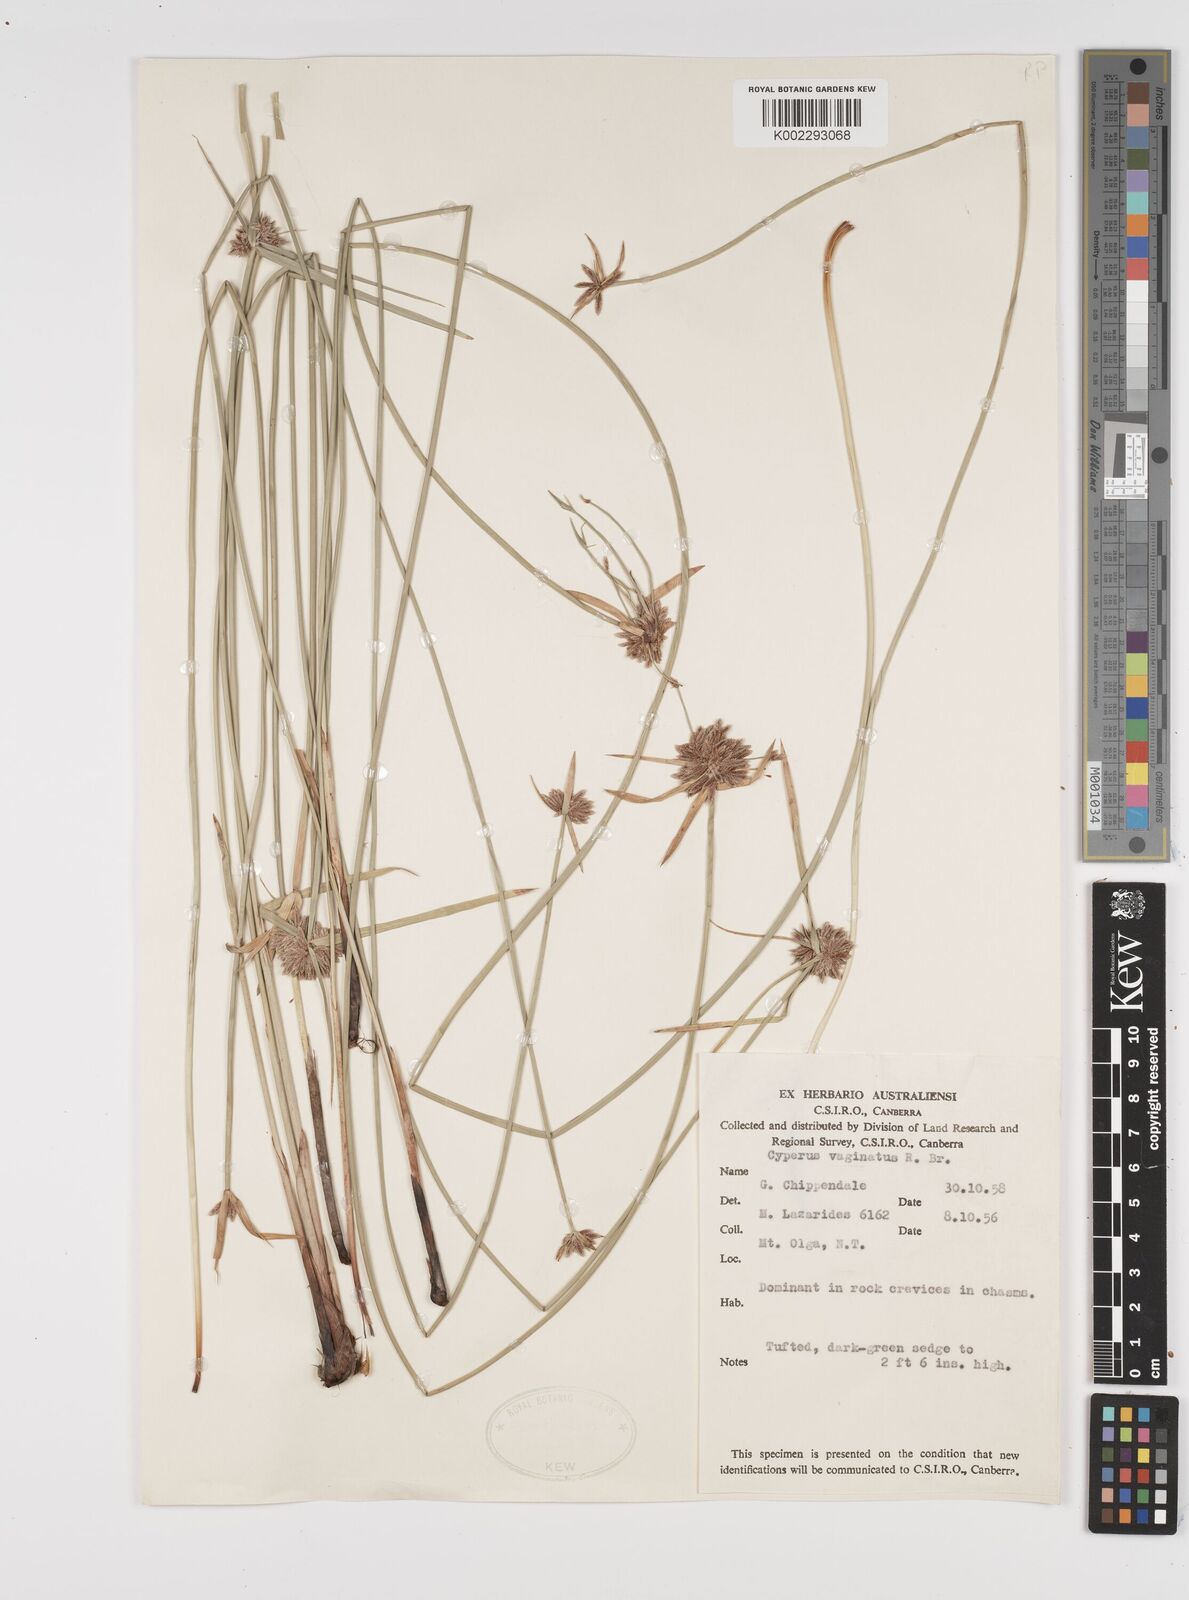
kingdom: Plantae
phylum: Tracheophyta
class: Liliopsida
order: Poales
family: Cyperaceae
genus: Cyperus
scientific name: Cyperus vaginatus
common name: Stiff-leaved flat-sedge
